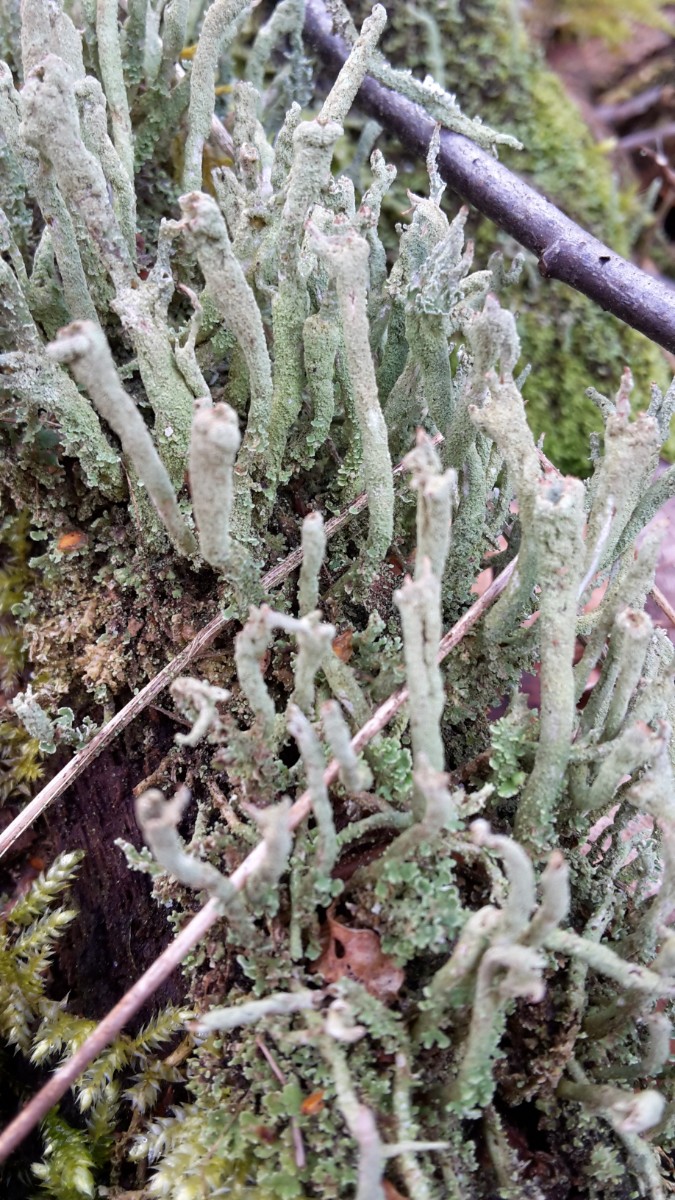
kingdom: Fungi
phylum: Ascomycota
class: Lecanoromycetes
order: Lecanorales
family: Cladoniaceae
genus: Cladonia
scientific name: Cladonia ochrochlora
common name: stød-bægerlav
